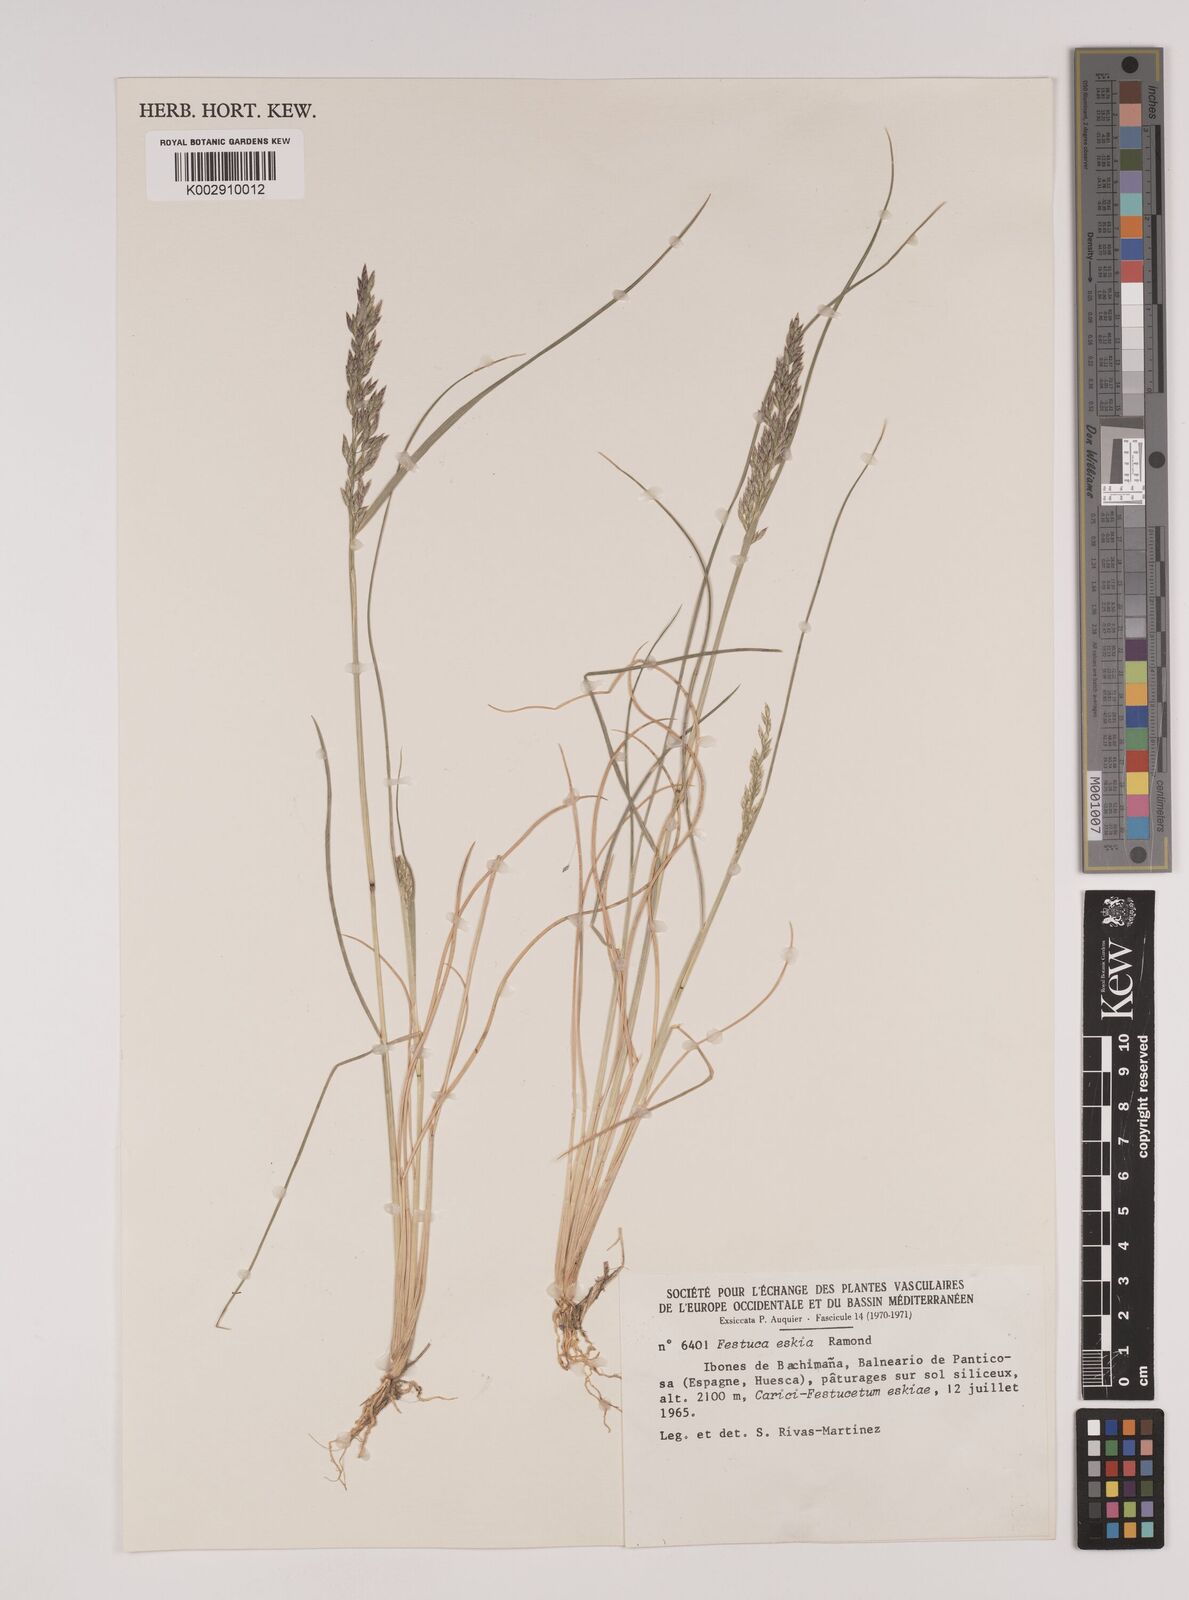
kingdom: Plantae
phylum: Tracheophyta
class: Liliopsida
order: Poales
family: Poaceae
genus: Festuca
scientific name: Festuca eskia
